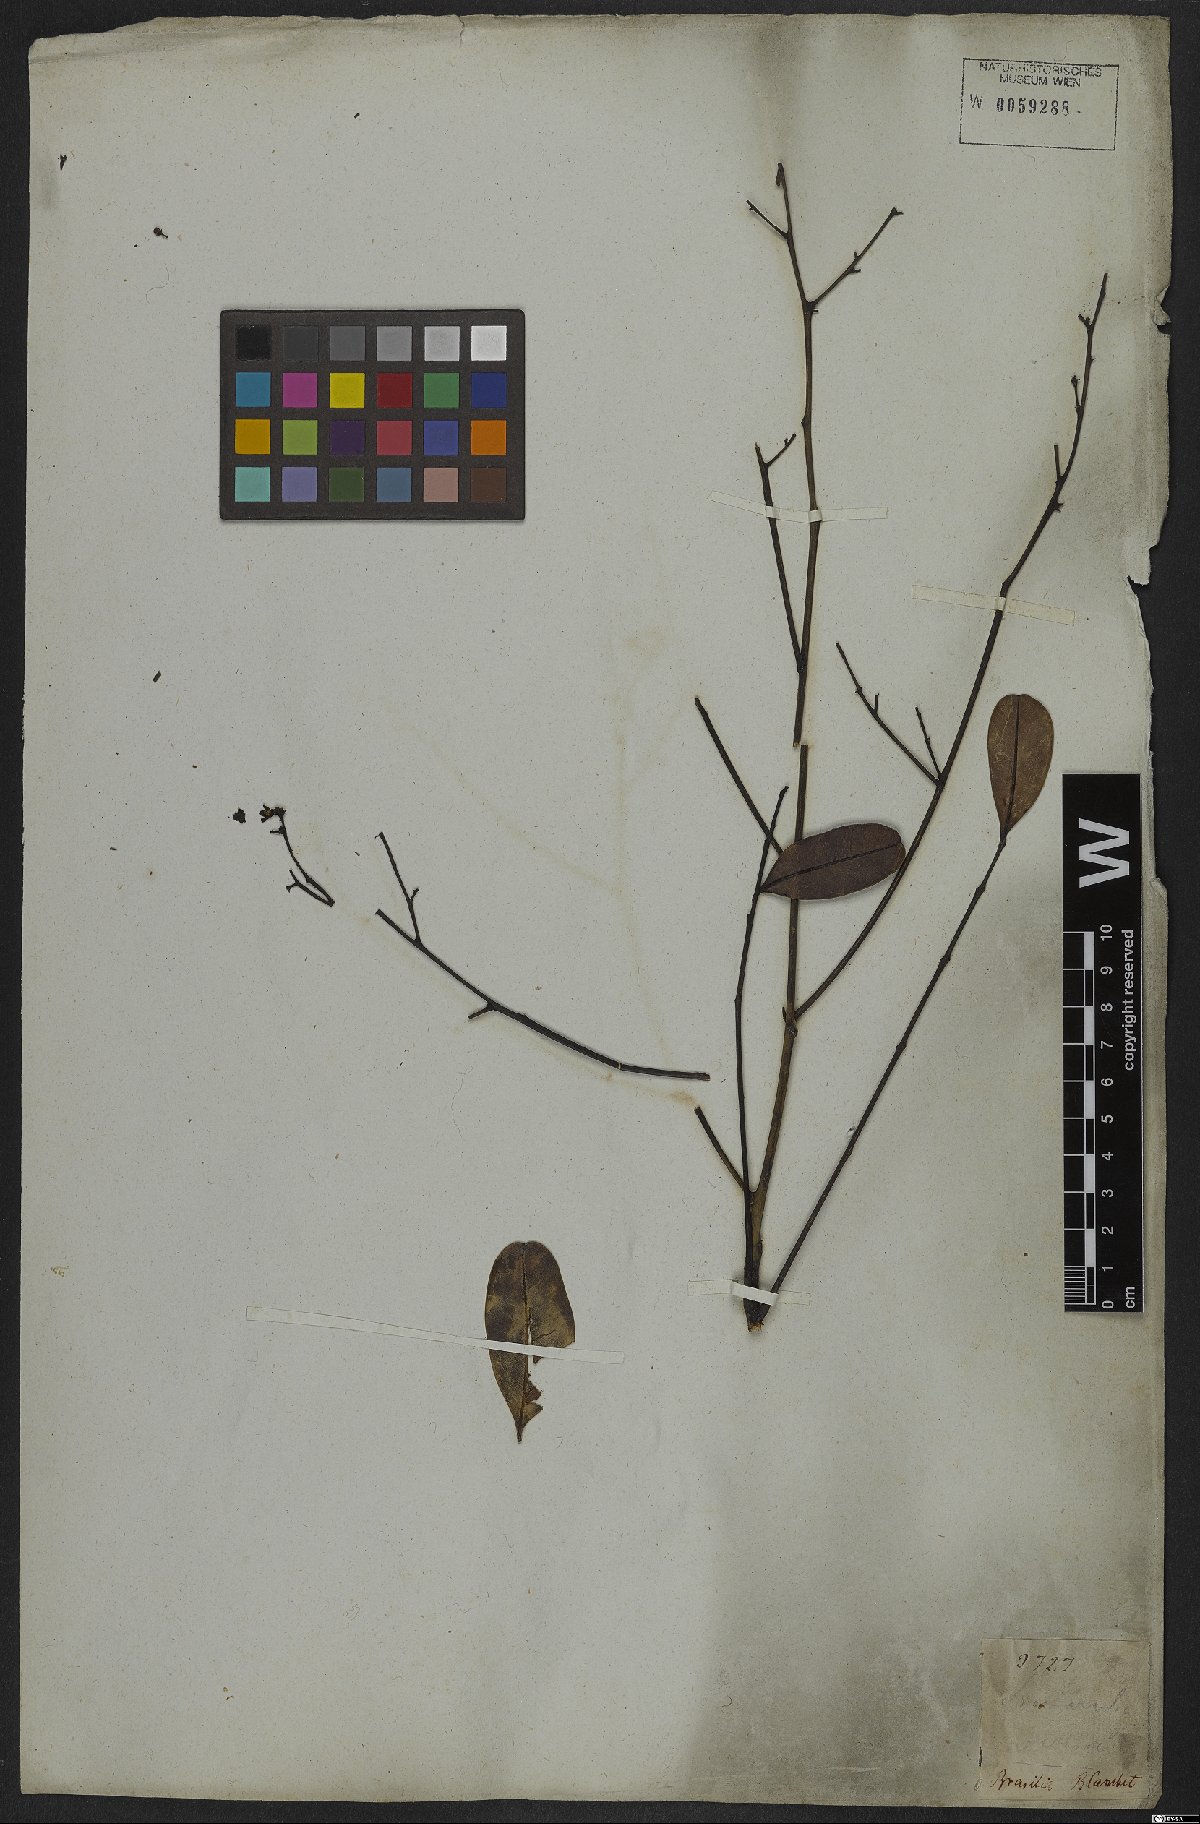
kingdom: Plantae
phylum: Tracheophyta
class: Magnoliopsida
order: Sapindales
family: Simaroubaceae
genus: Simarouba
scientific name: Simarouba amara
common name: Bitterwood
